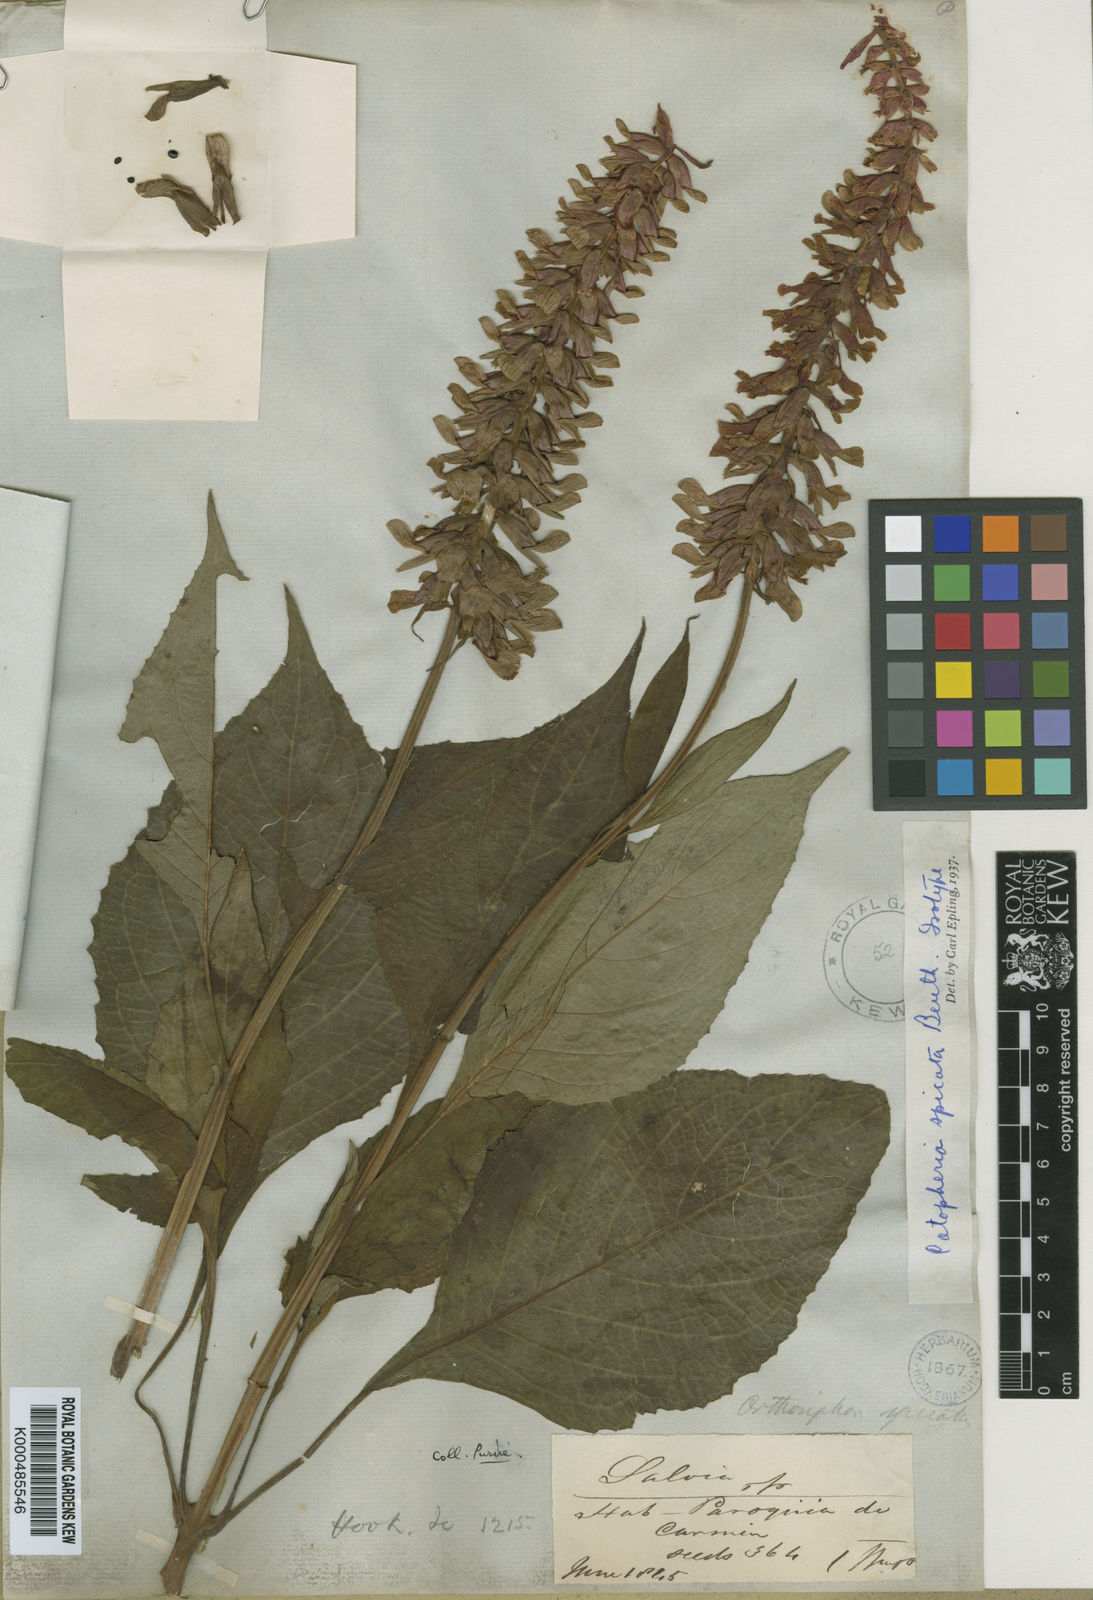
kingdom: Plantae
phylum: Tracheophyta
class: Magnoliopsida
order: Lamiales
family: Lamiaceae
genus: Catoferia
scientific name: Catoferia spicata
